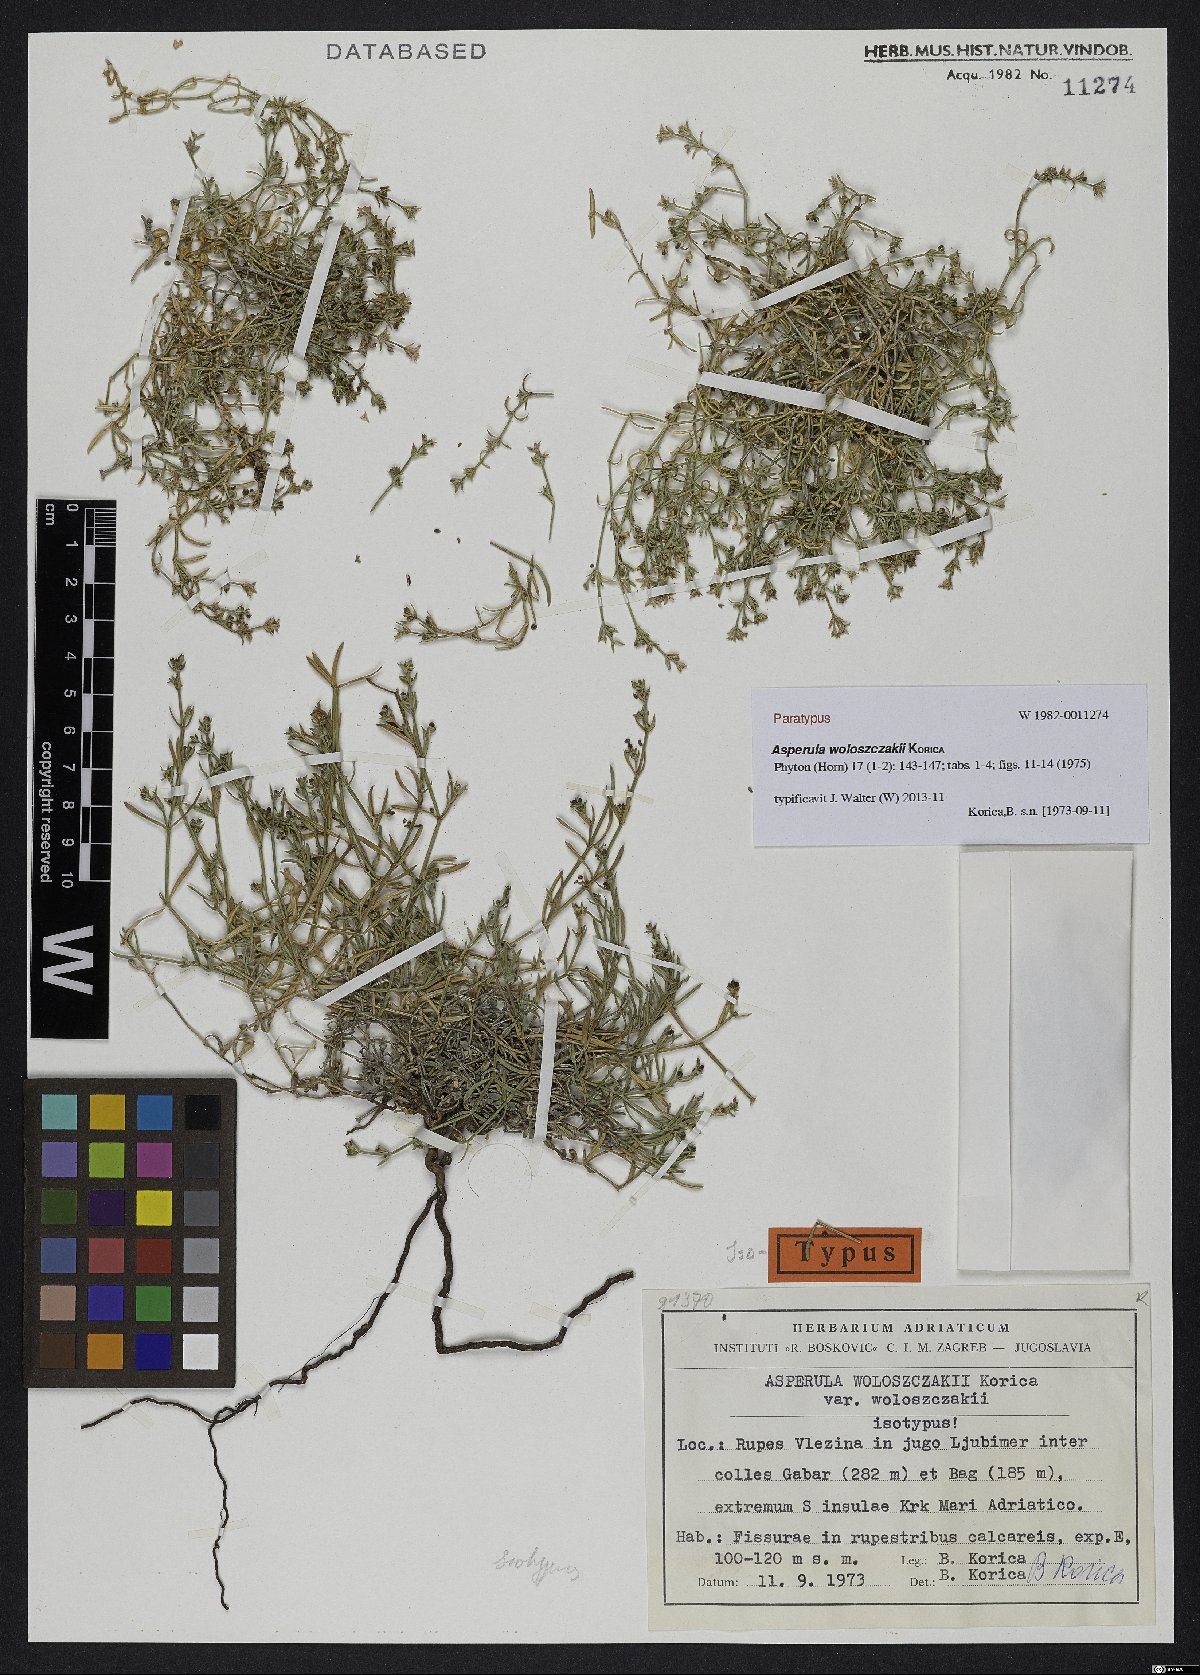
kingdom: Plantae
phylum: Tracheophyta
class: Magnoliopsida
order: Gentianales
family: Rubiaceae
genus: Cynanchica
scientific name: Cynanchica woloszczakii
